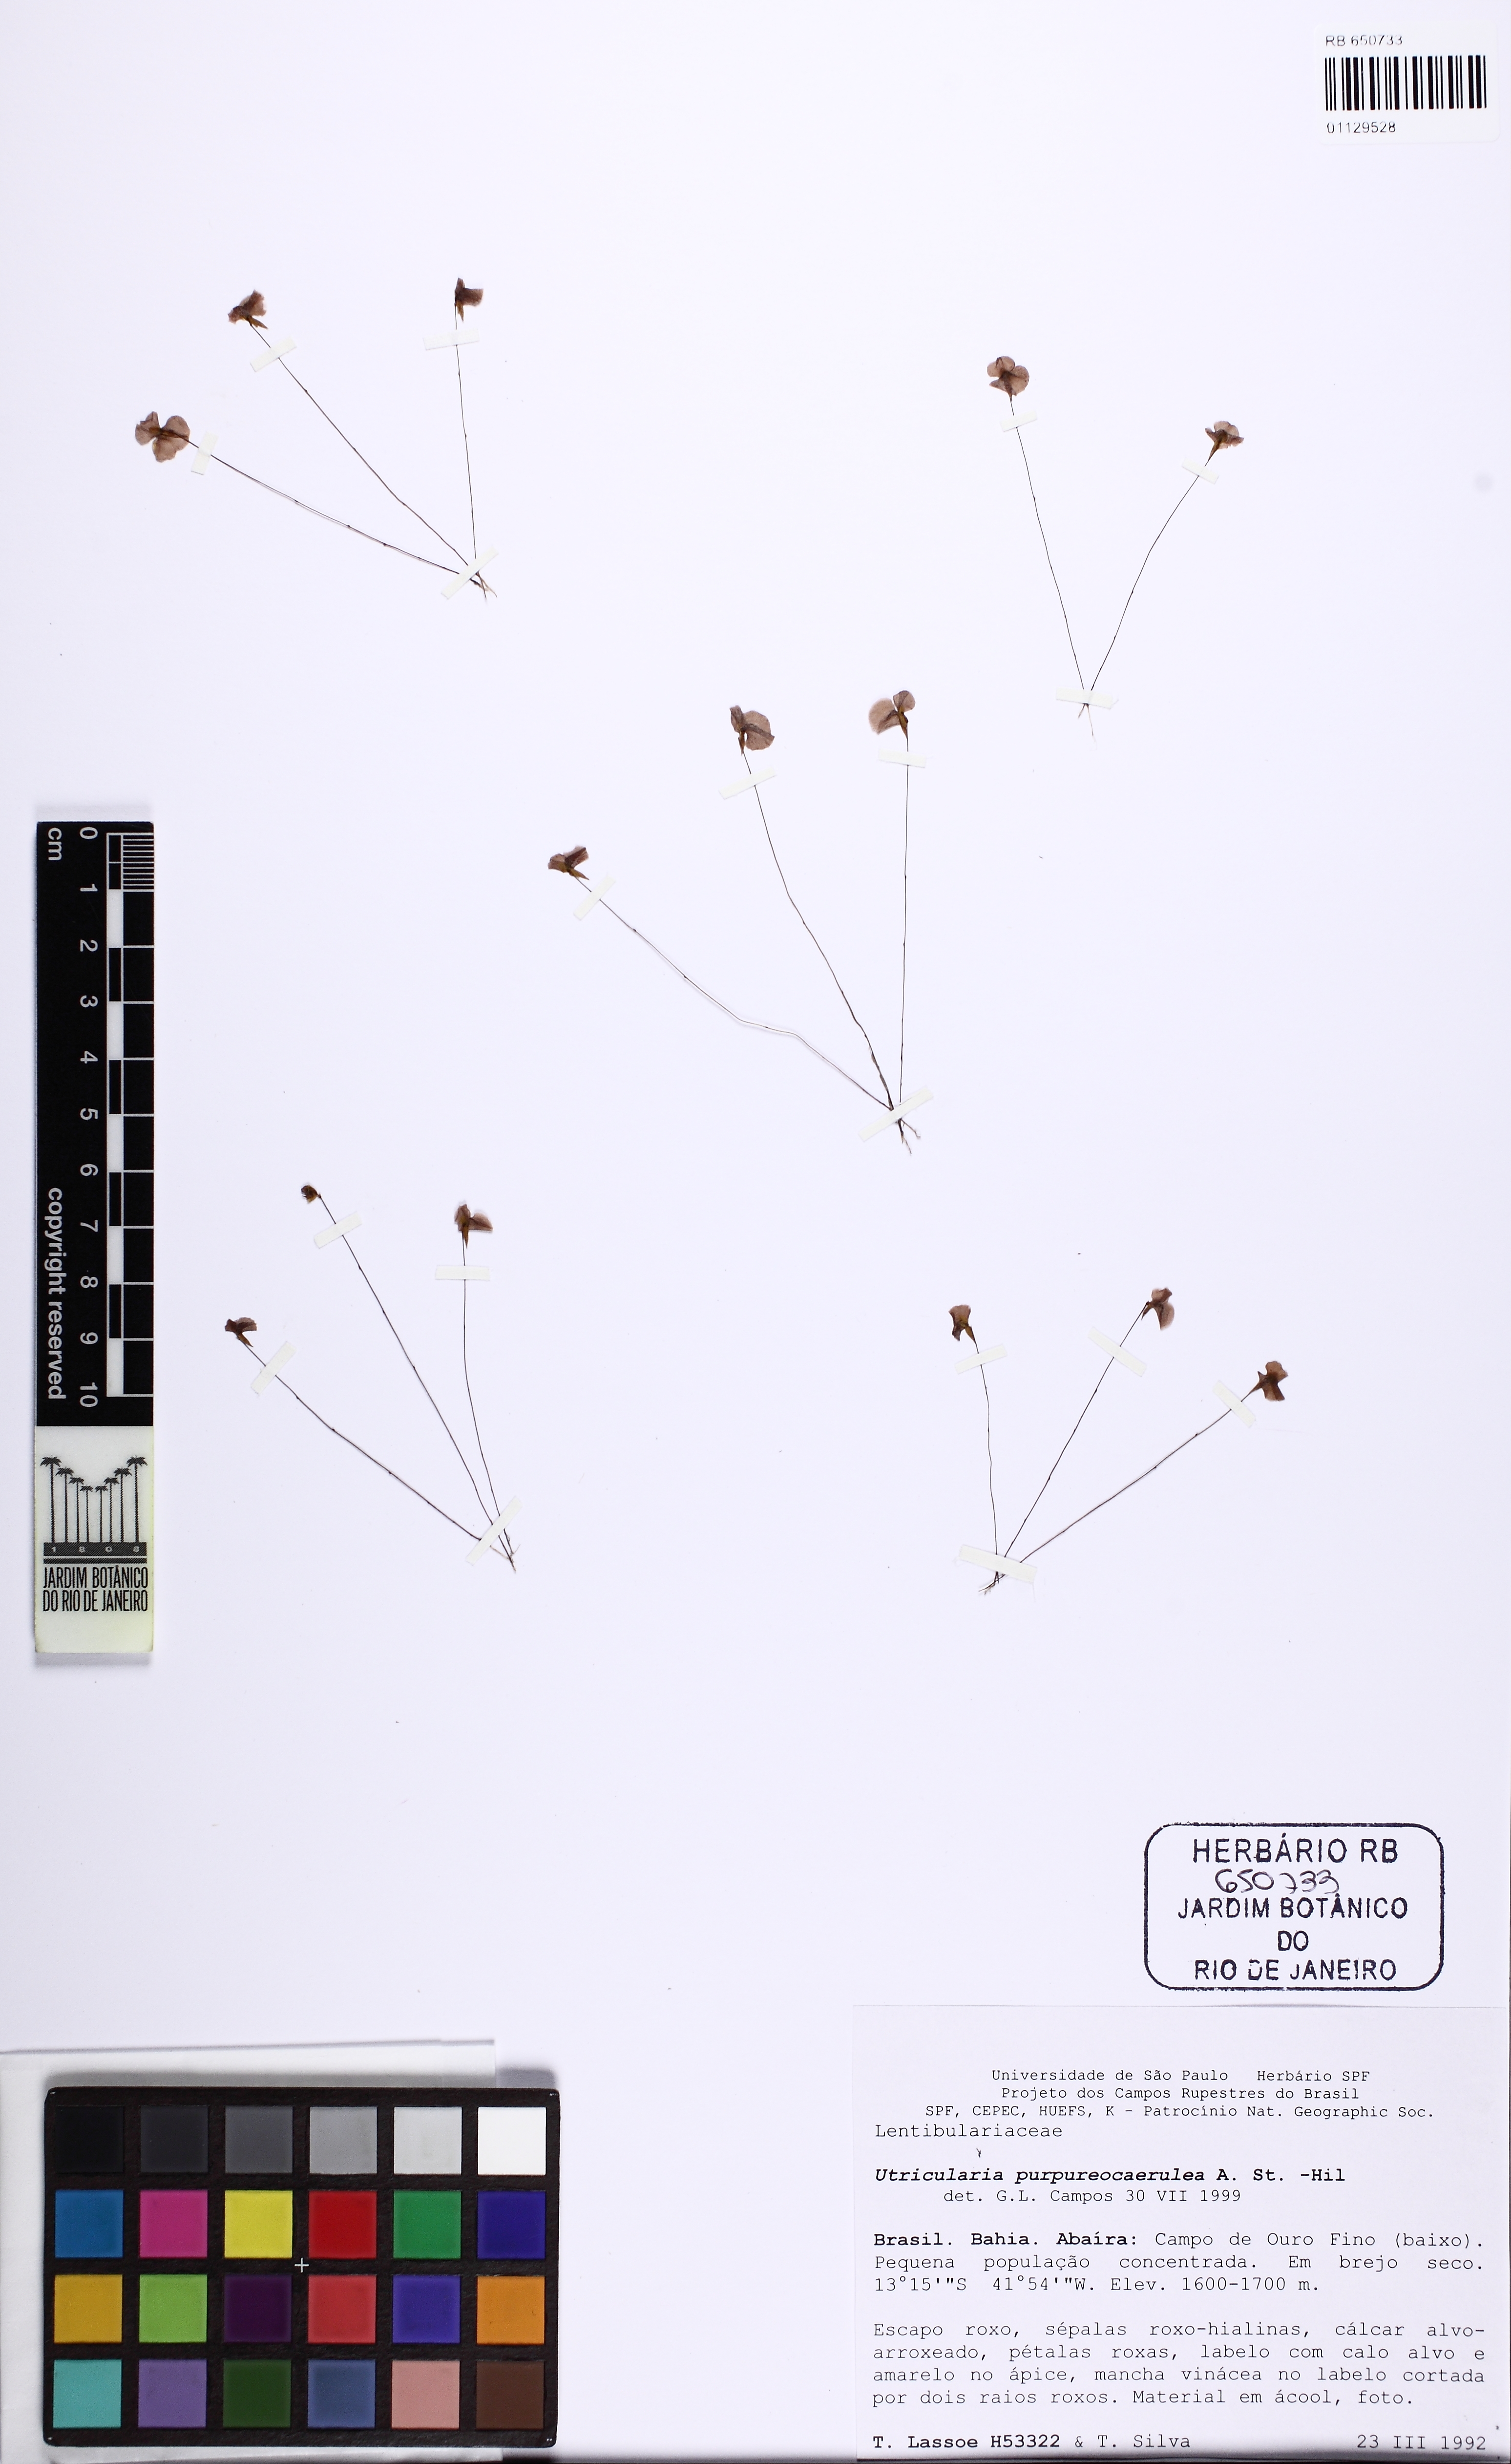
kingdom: Plantae
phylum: Tracheophyta
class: Magnoliopsida
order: Lamiales
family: Lentibulariaceae
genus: Utricularia
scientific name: Utricularia purpureocaerulea
